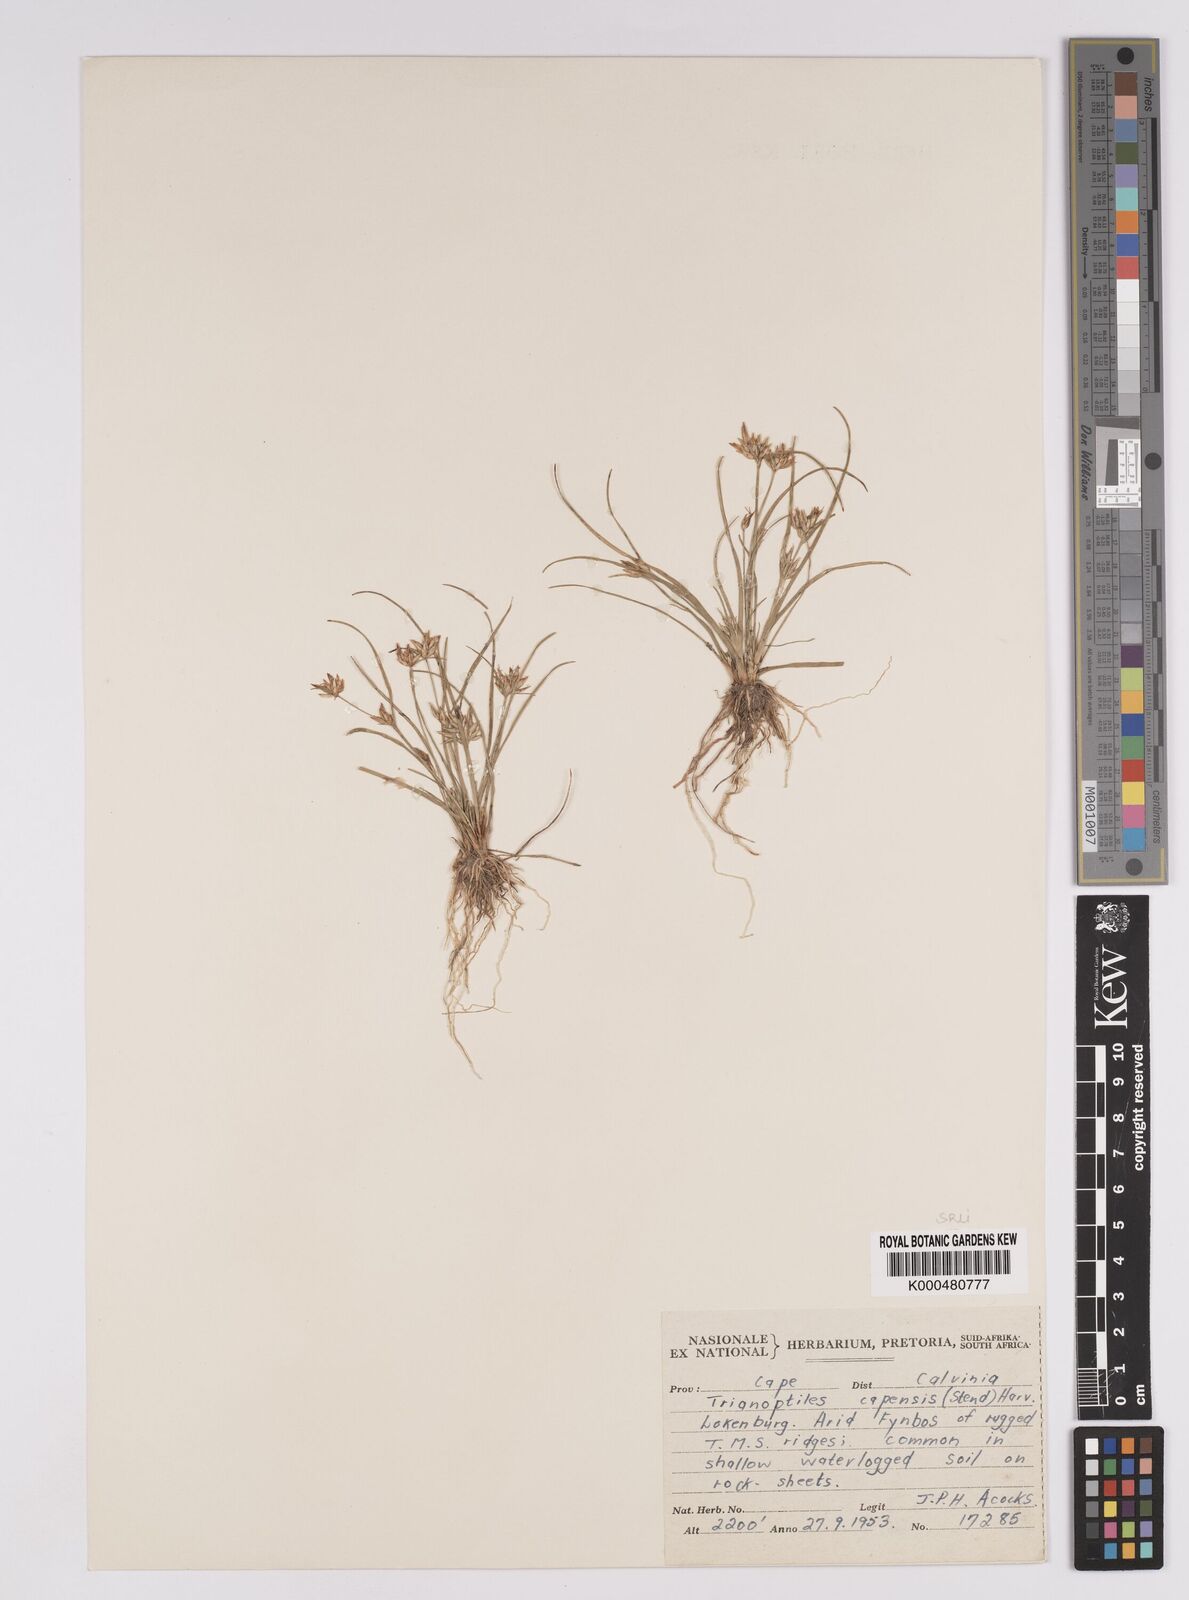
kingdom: Plantae
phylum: Tracheophyta
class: Liliopsida
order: Poales
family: Cyperaceae
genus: Trianoptiles
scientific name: Trianoptiles capensis
